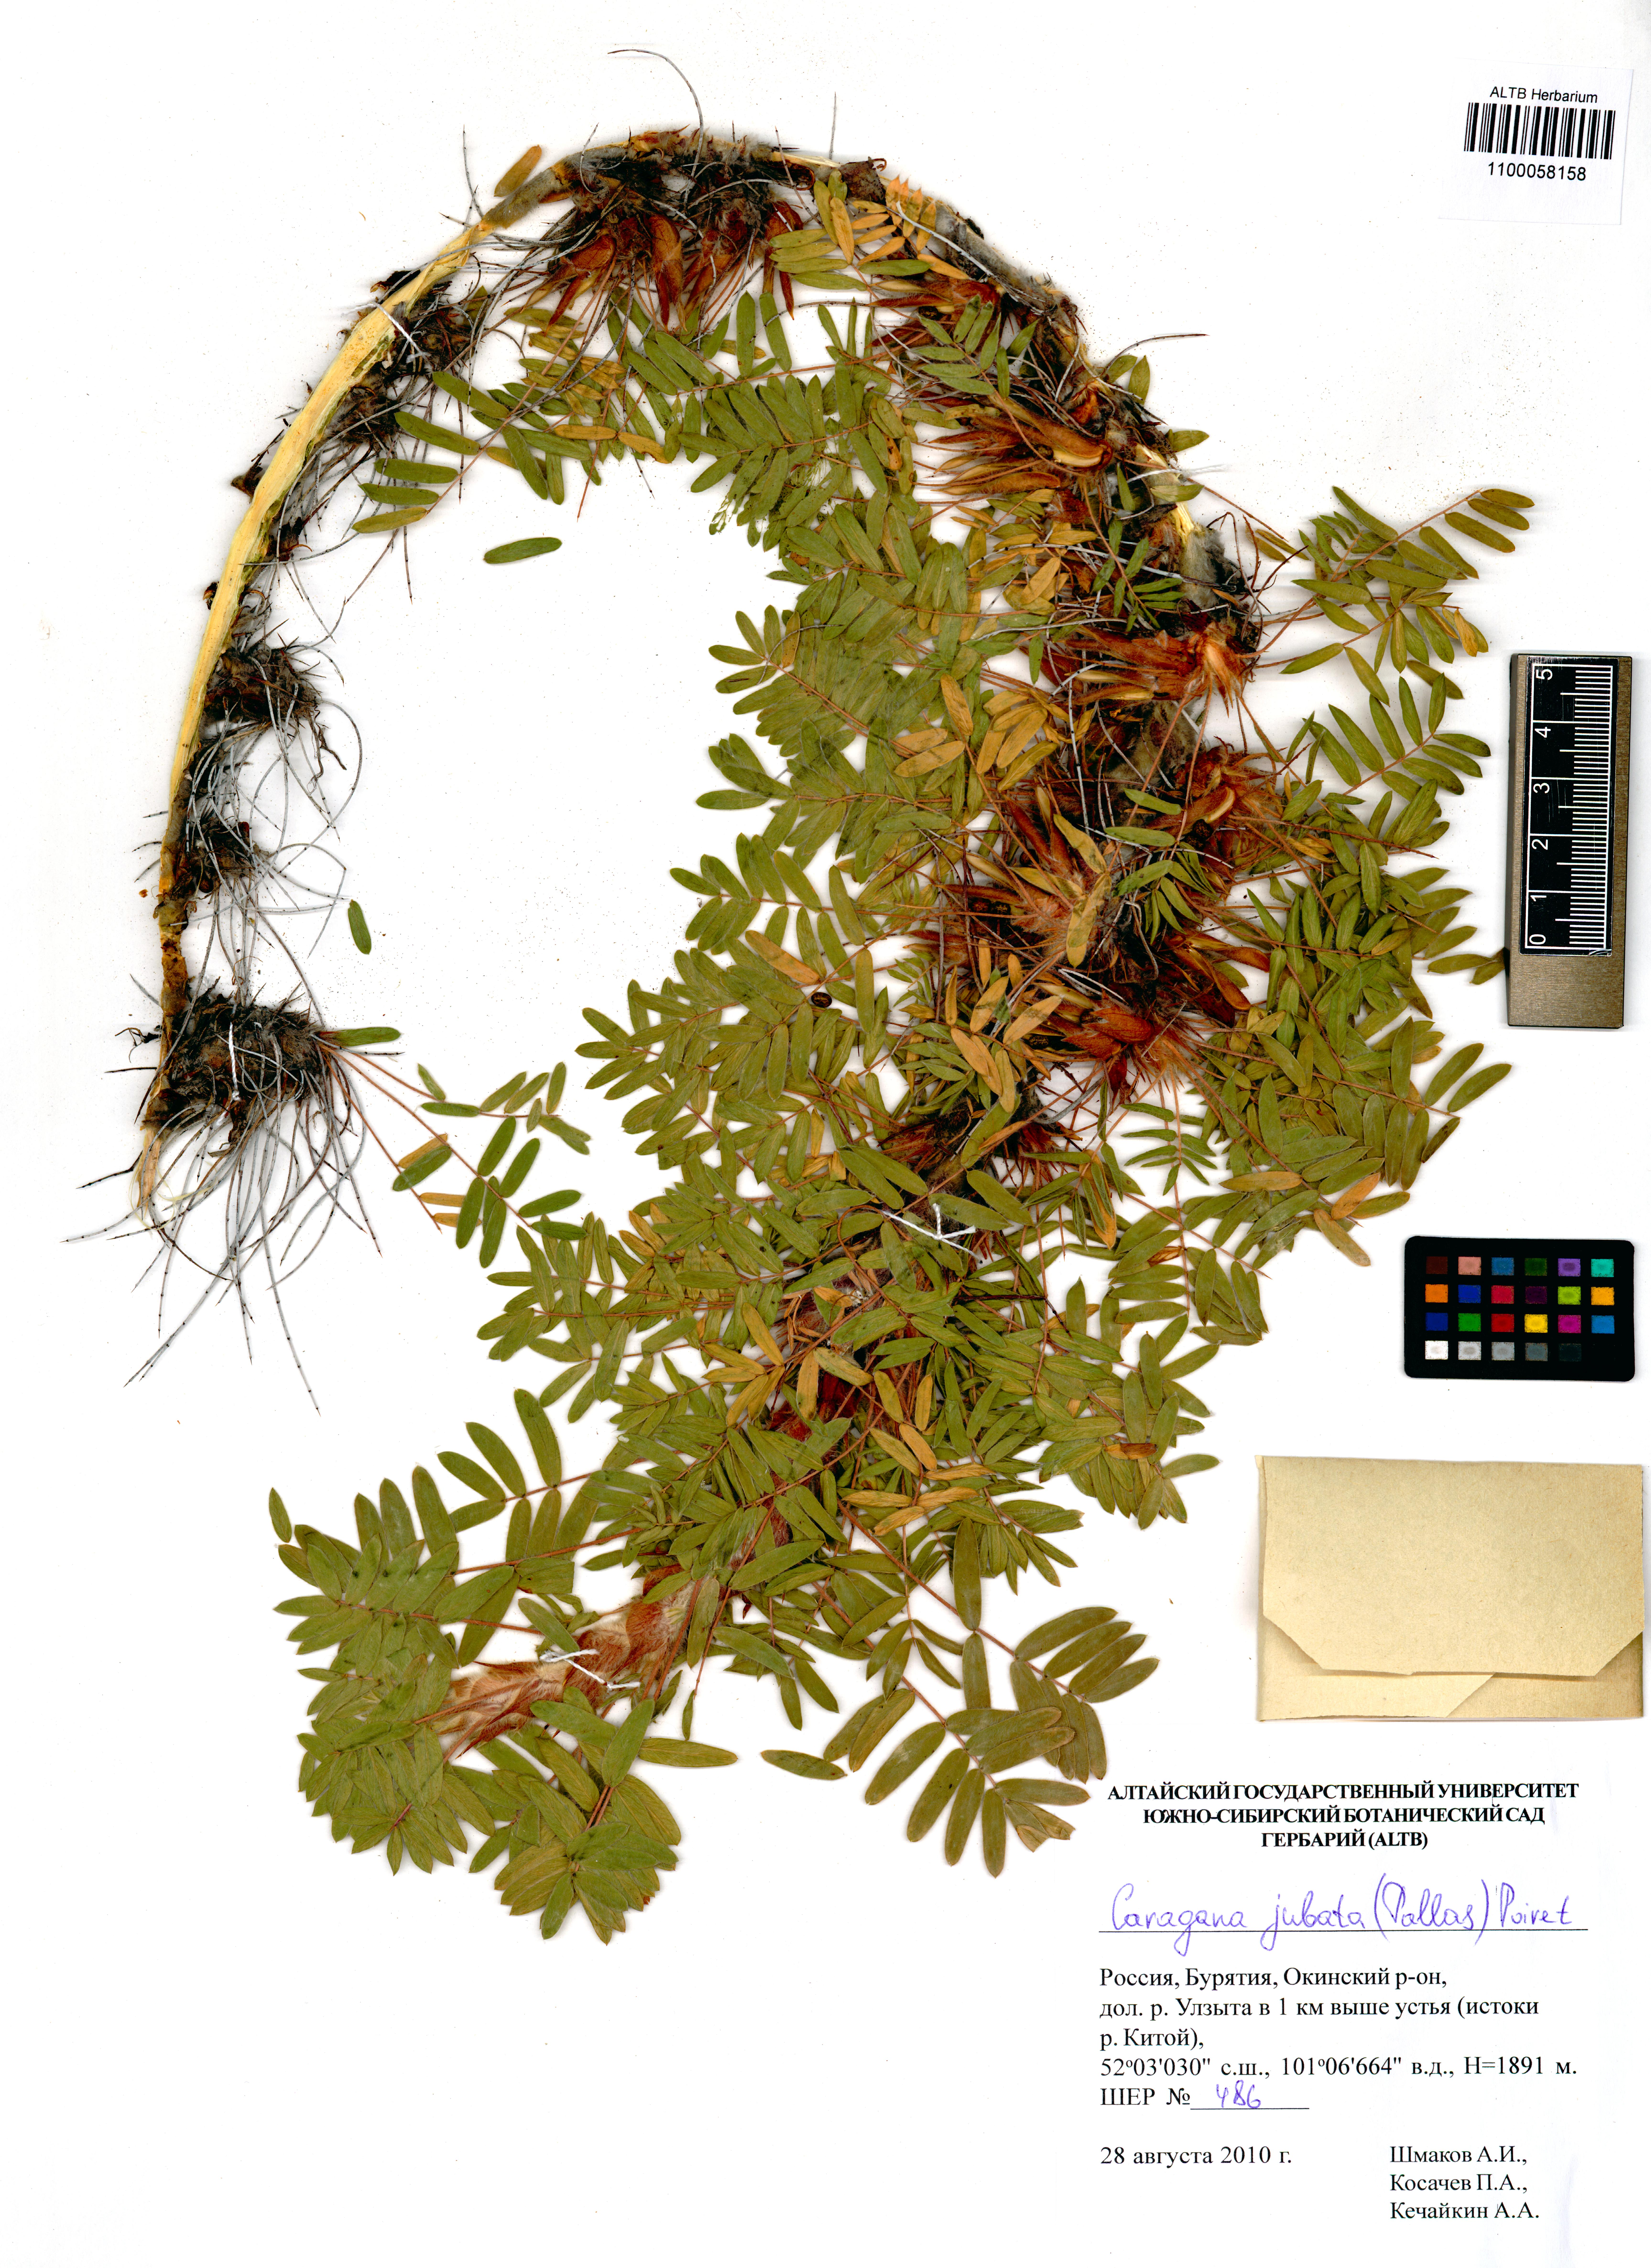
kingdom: Plantae
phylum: Tracheophyta
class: Magnoliopsida
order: Fabales
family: Fabaceae
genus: Caragana
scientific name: Caragana jubata
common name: Shag-spine peashrub
